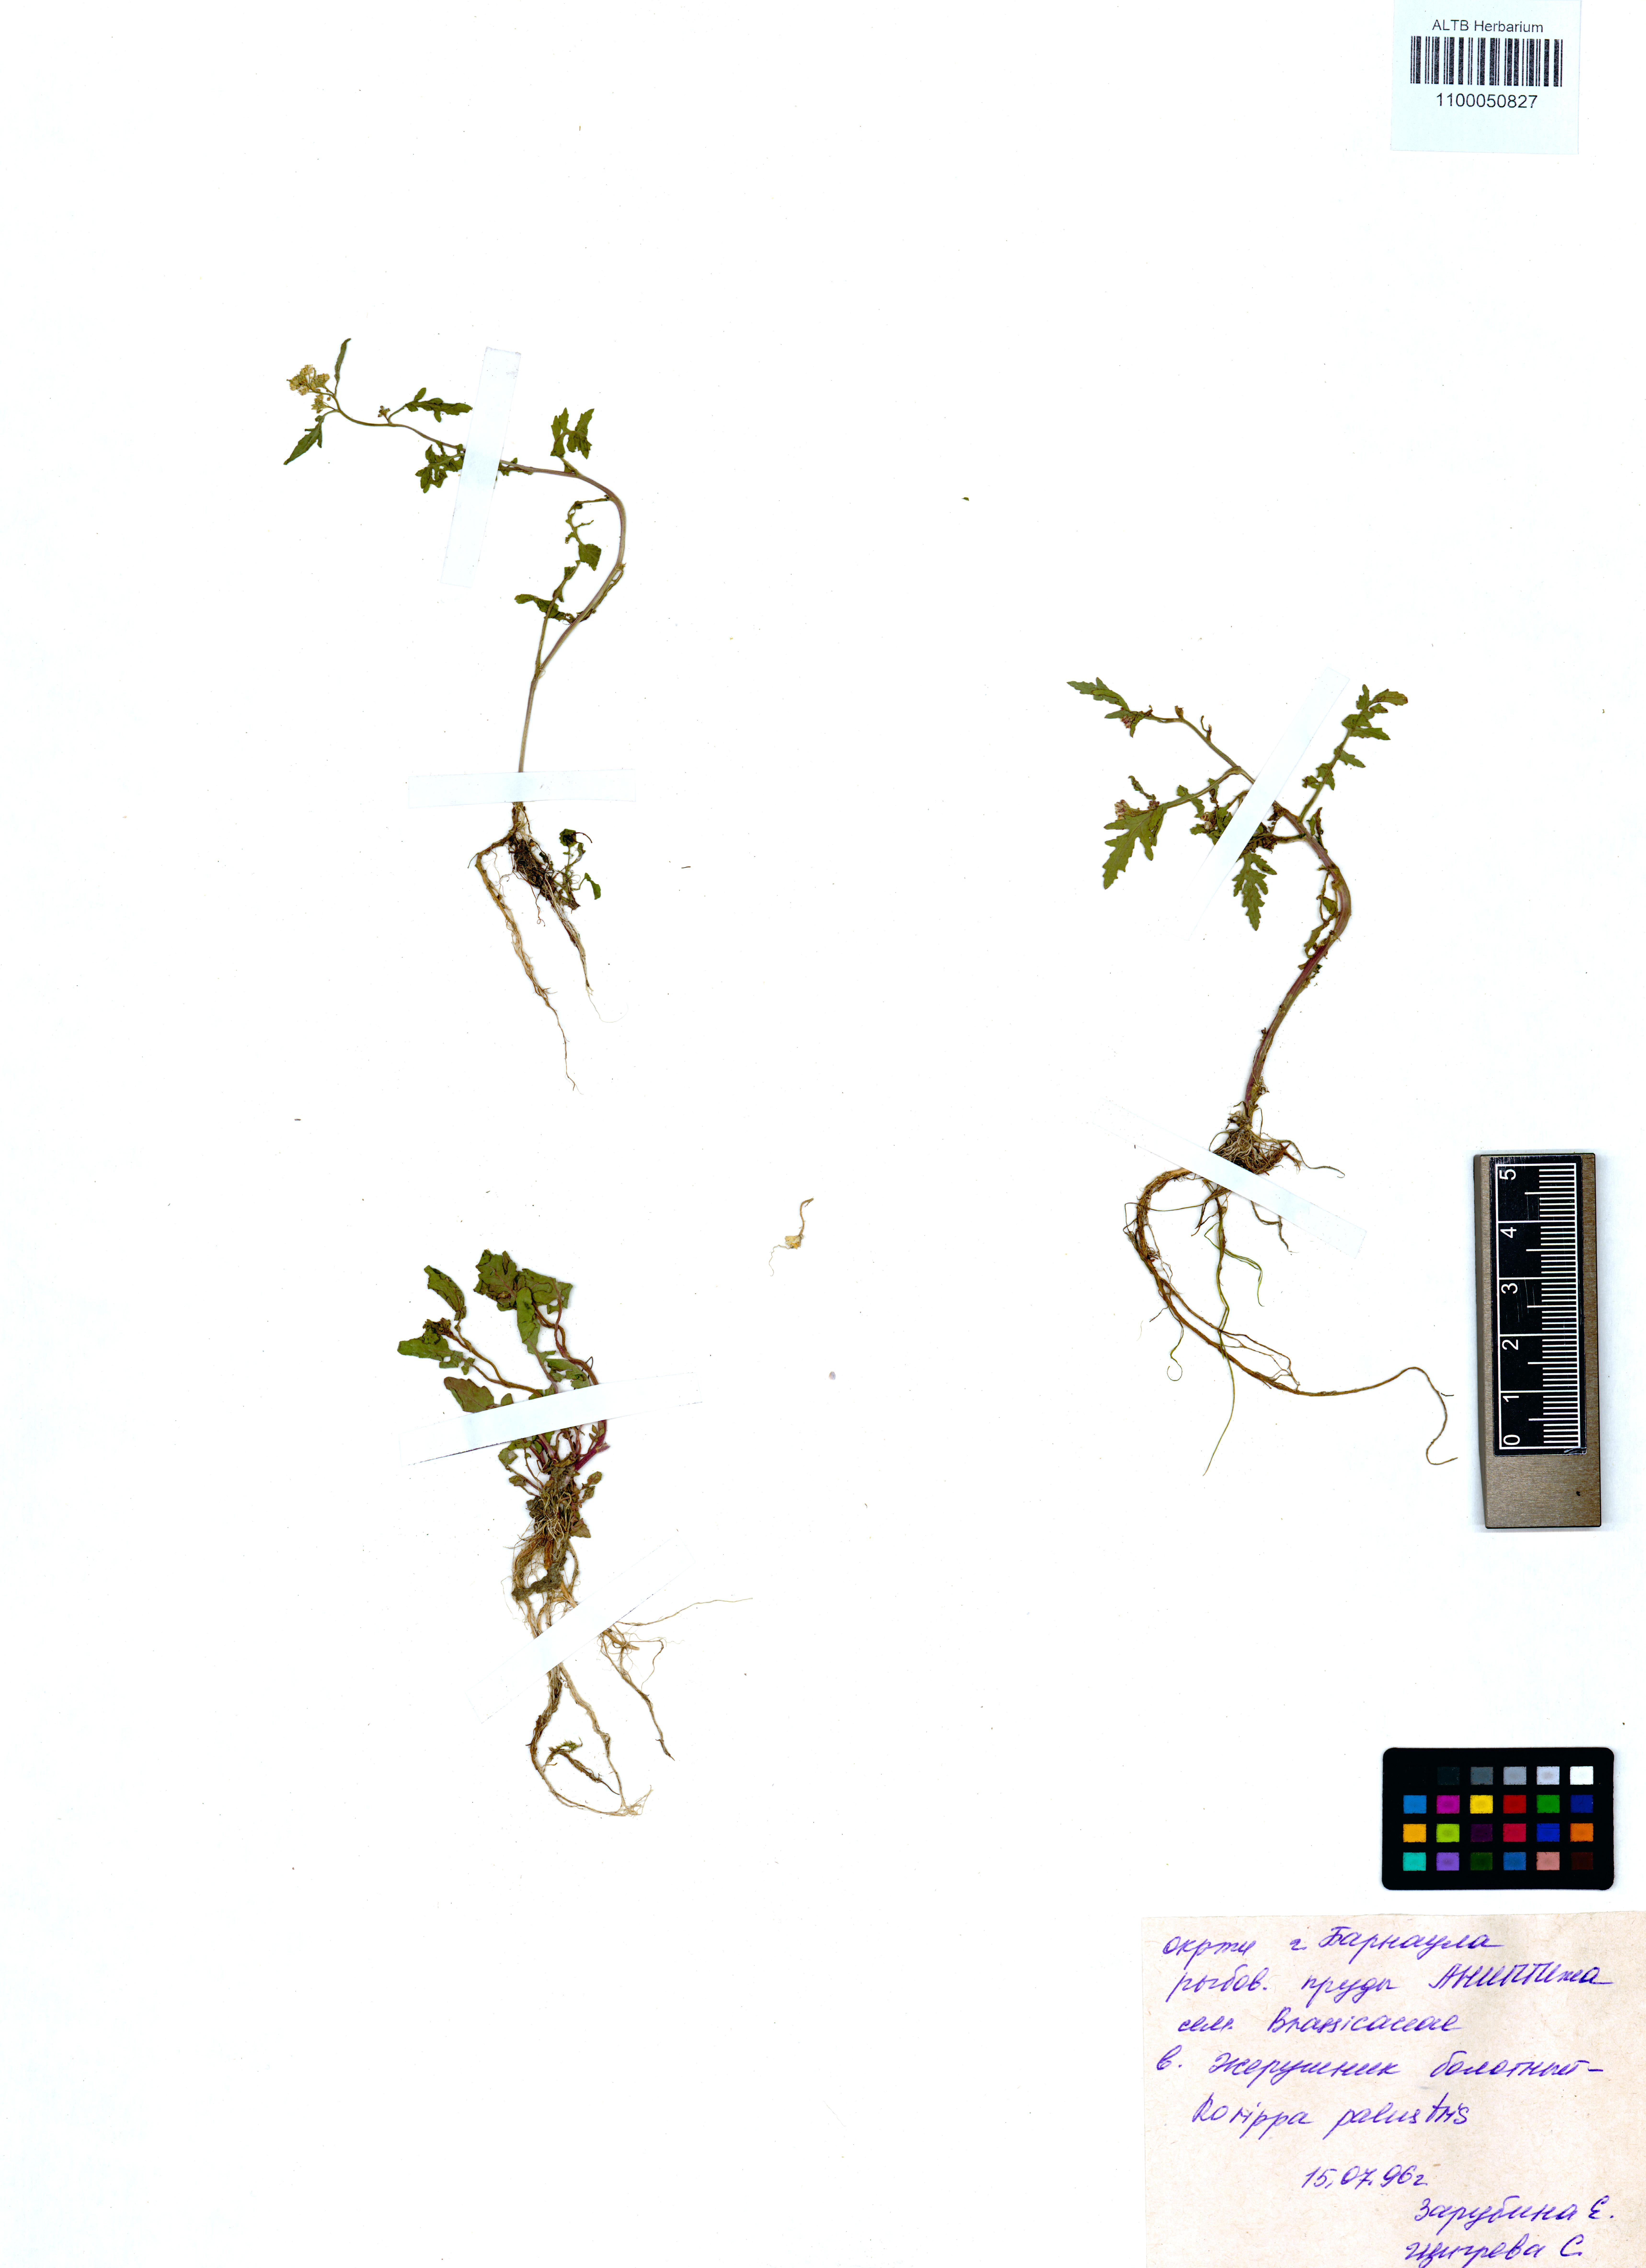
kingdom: Plantae
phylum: Tracheophyta
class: Magnoliopsida
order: Brassicales
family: Brassicaceae
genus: Rorippa
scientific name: Rorippa palustris
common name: Marsh yellow-cress
